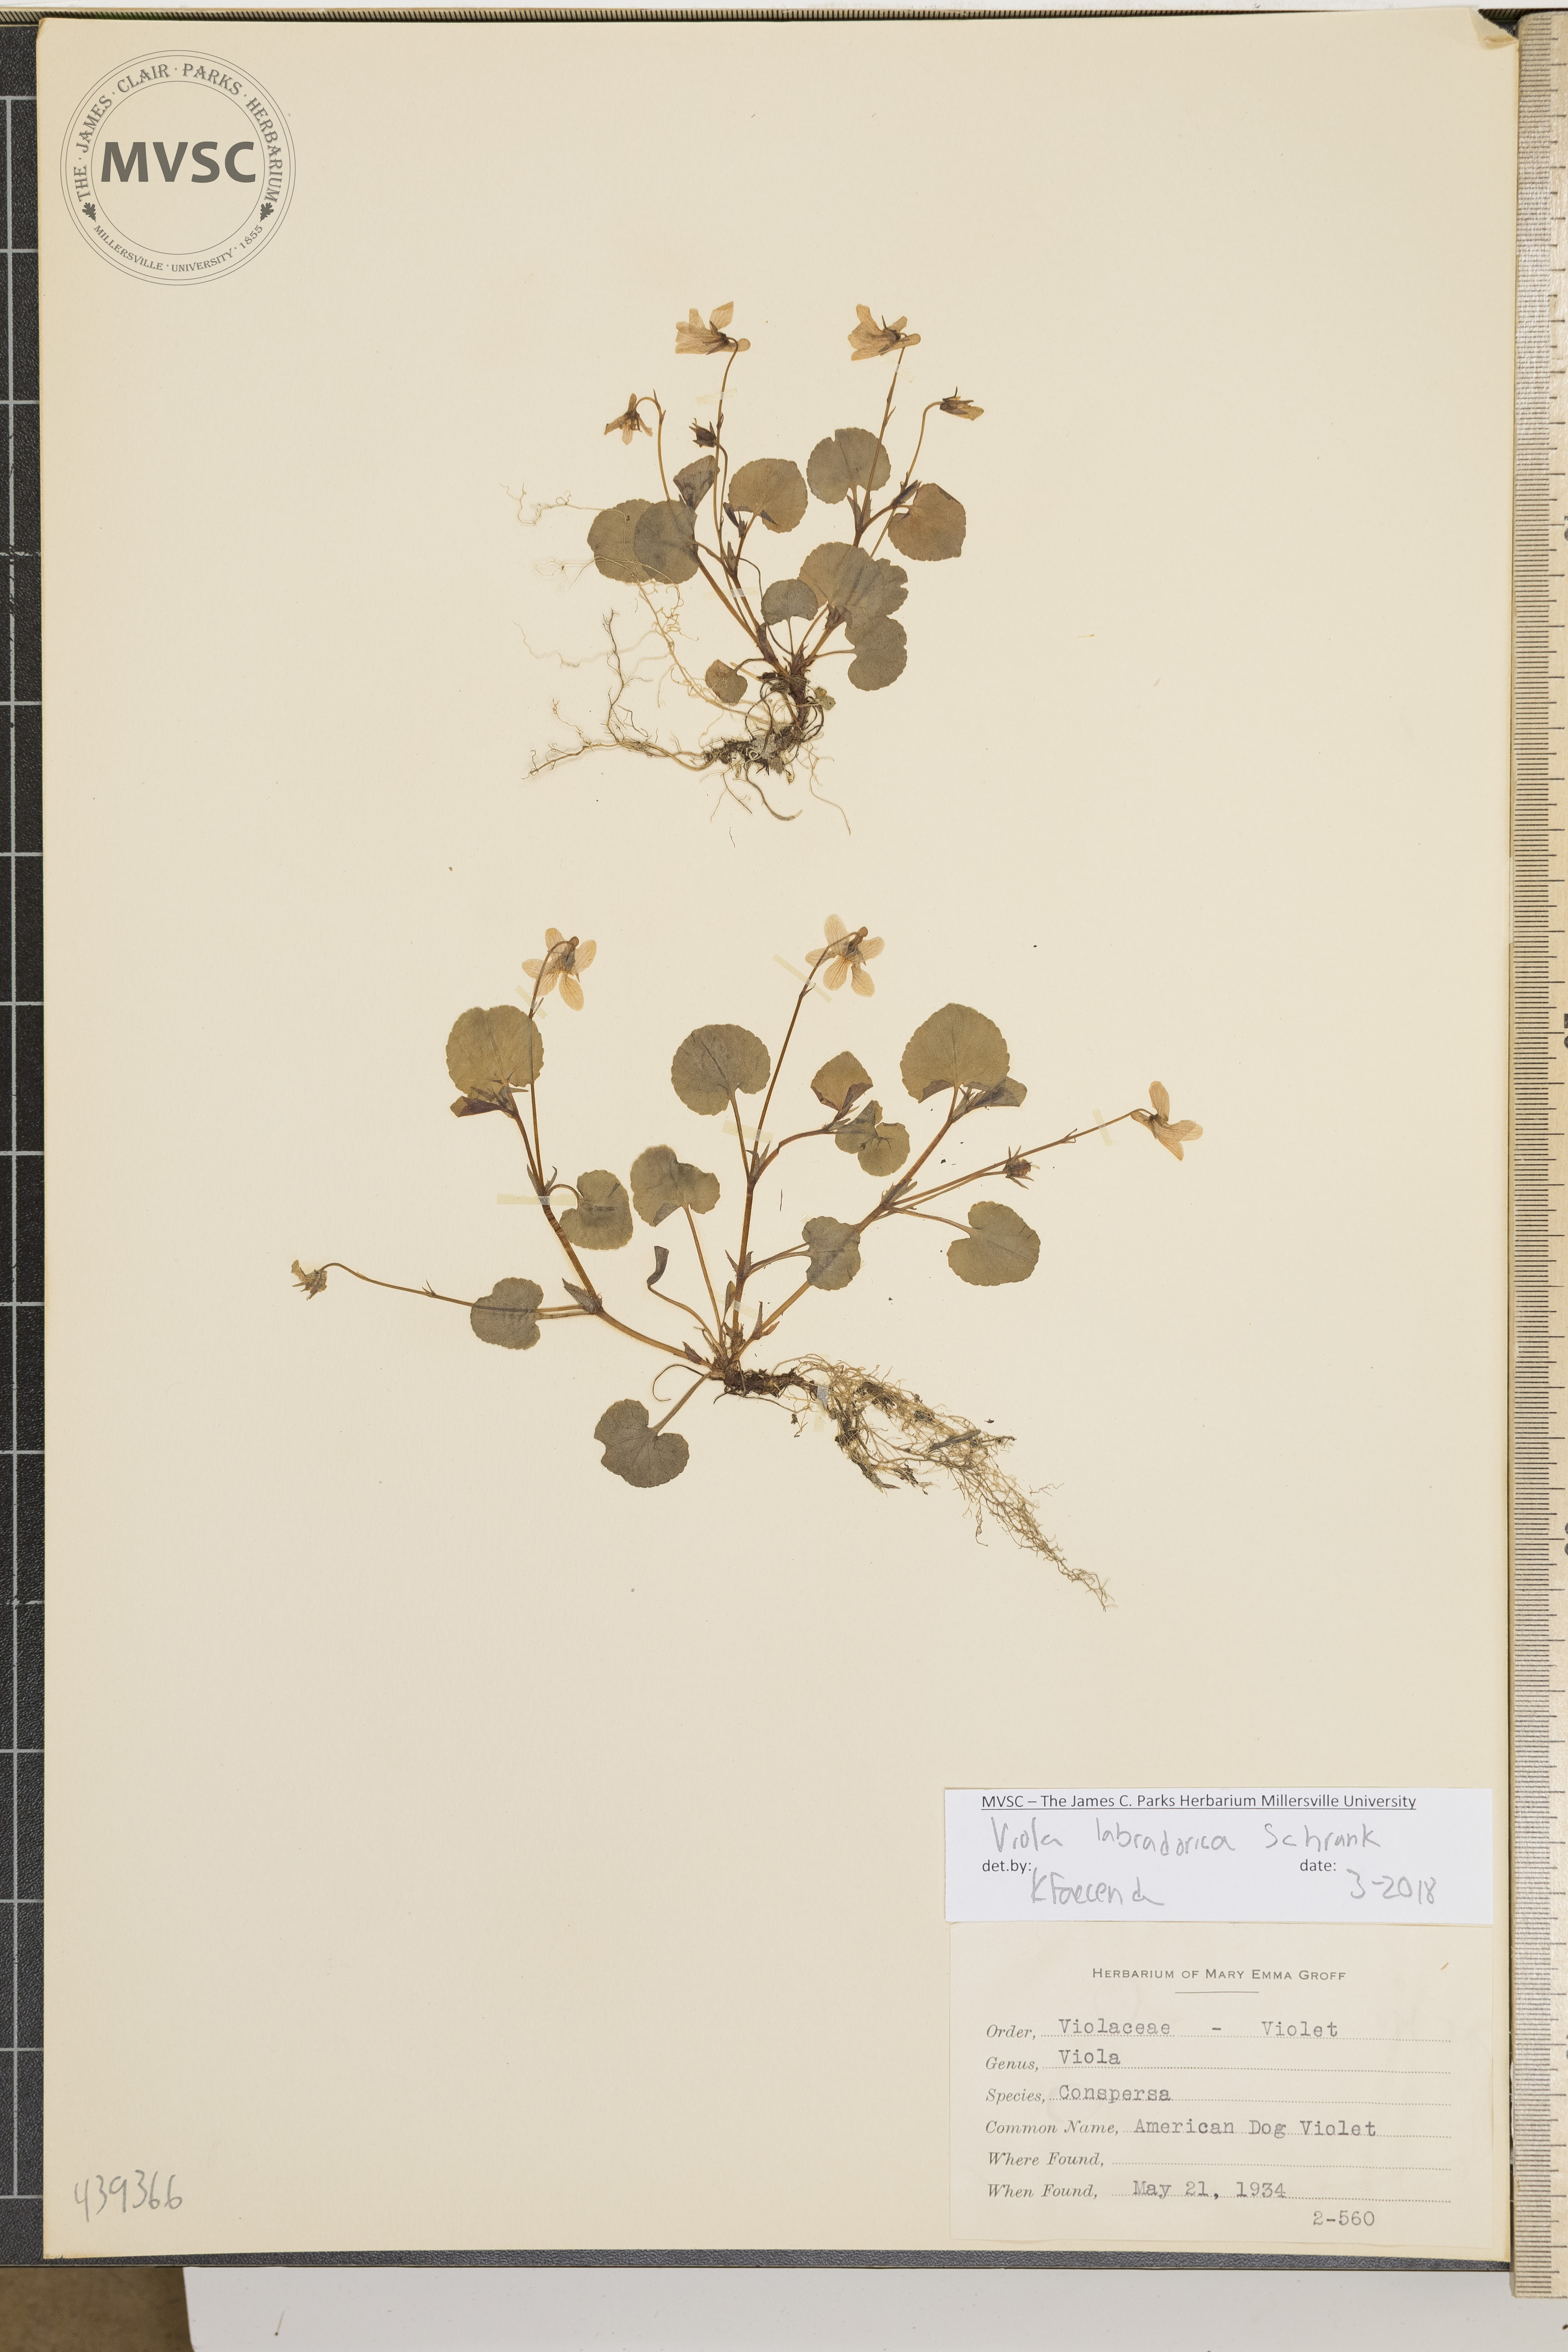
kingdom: Plantae
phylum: Tracheophyta
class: Magnoliopsida
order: Malpighiales
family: Violaceae
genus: Viola
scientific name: Viola labradorica
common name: American dog violet
